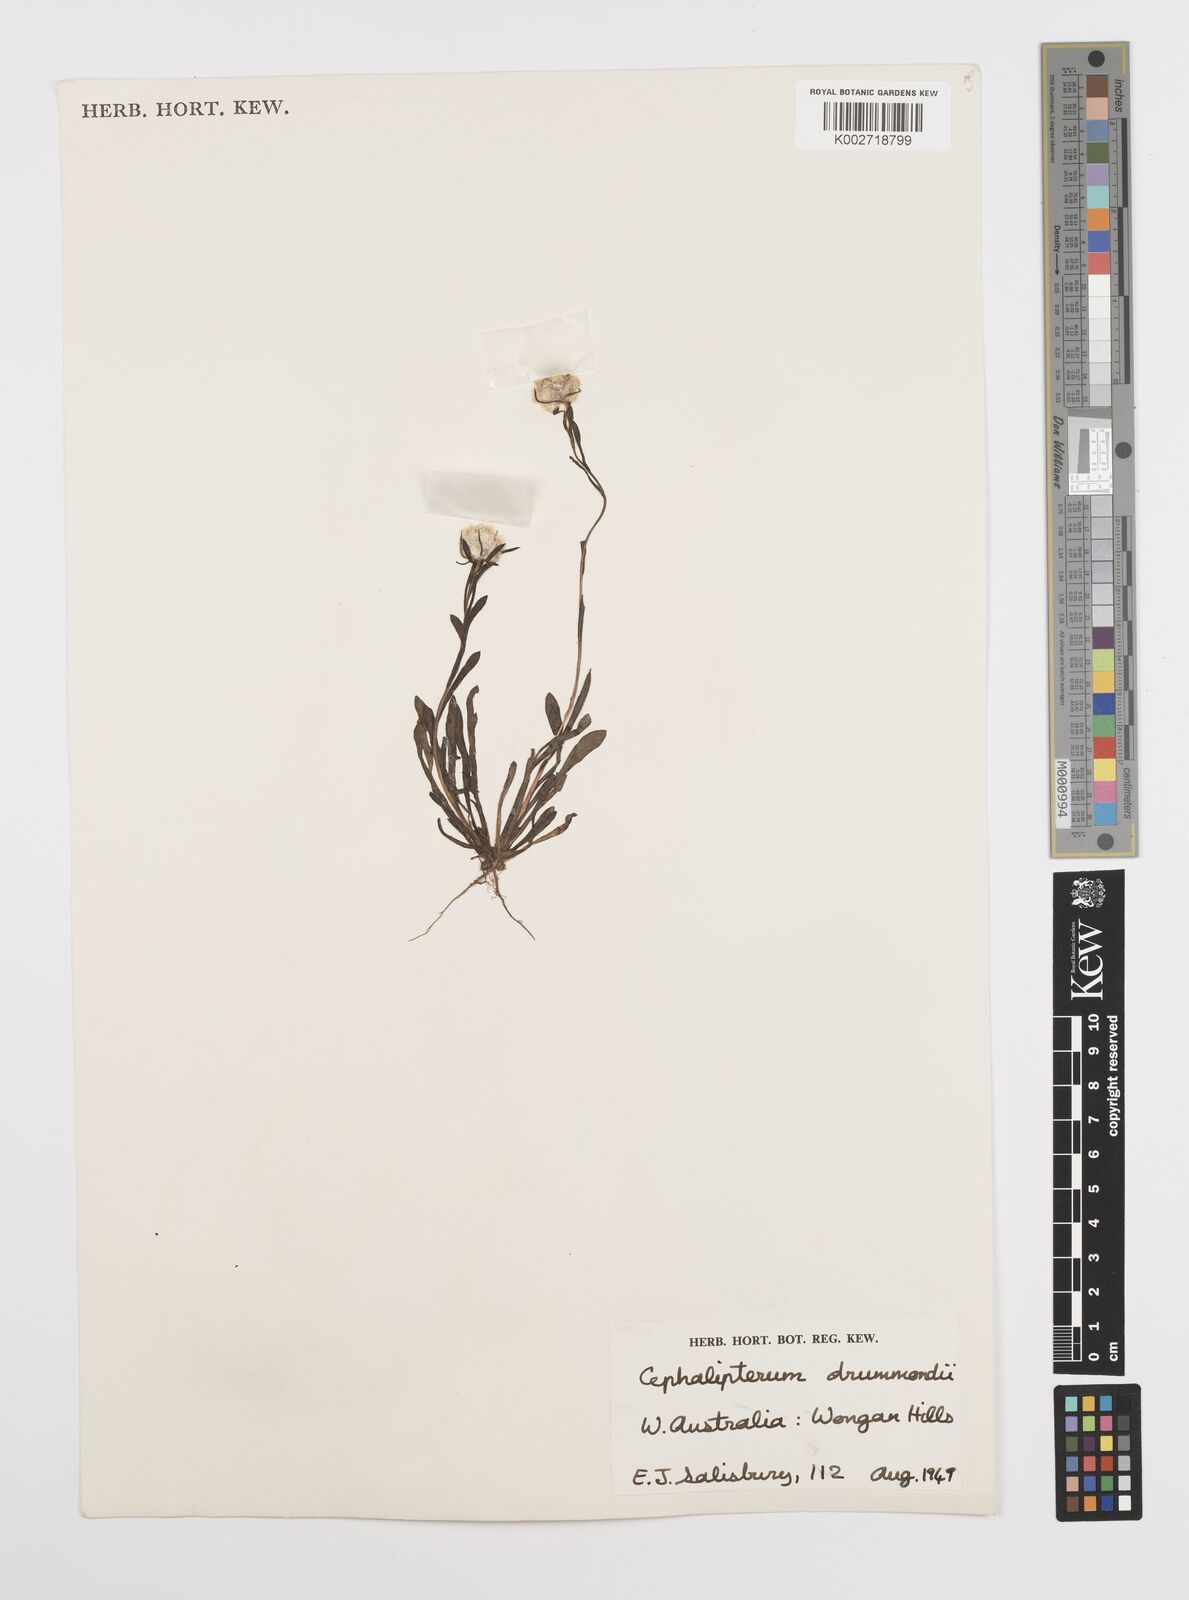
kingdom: Plantae
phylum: Tracheophyta
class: Magnoliopsida
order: Asterales
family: Asteraceae
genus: Cephalipterum
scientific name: Cephalipterum drummondii
